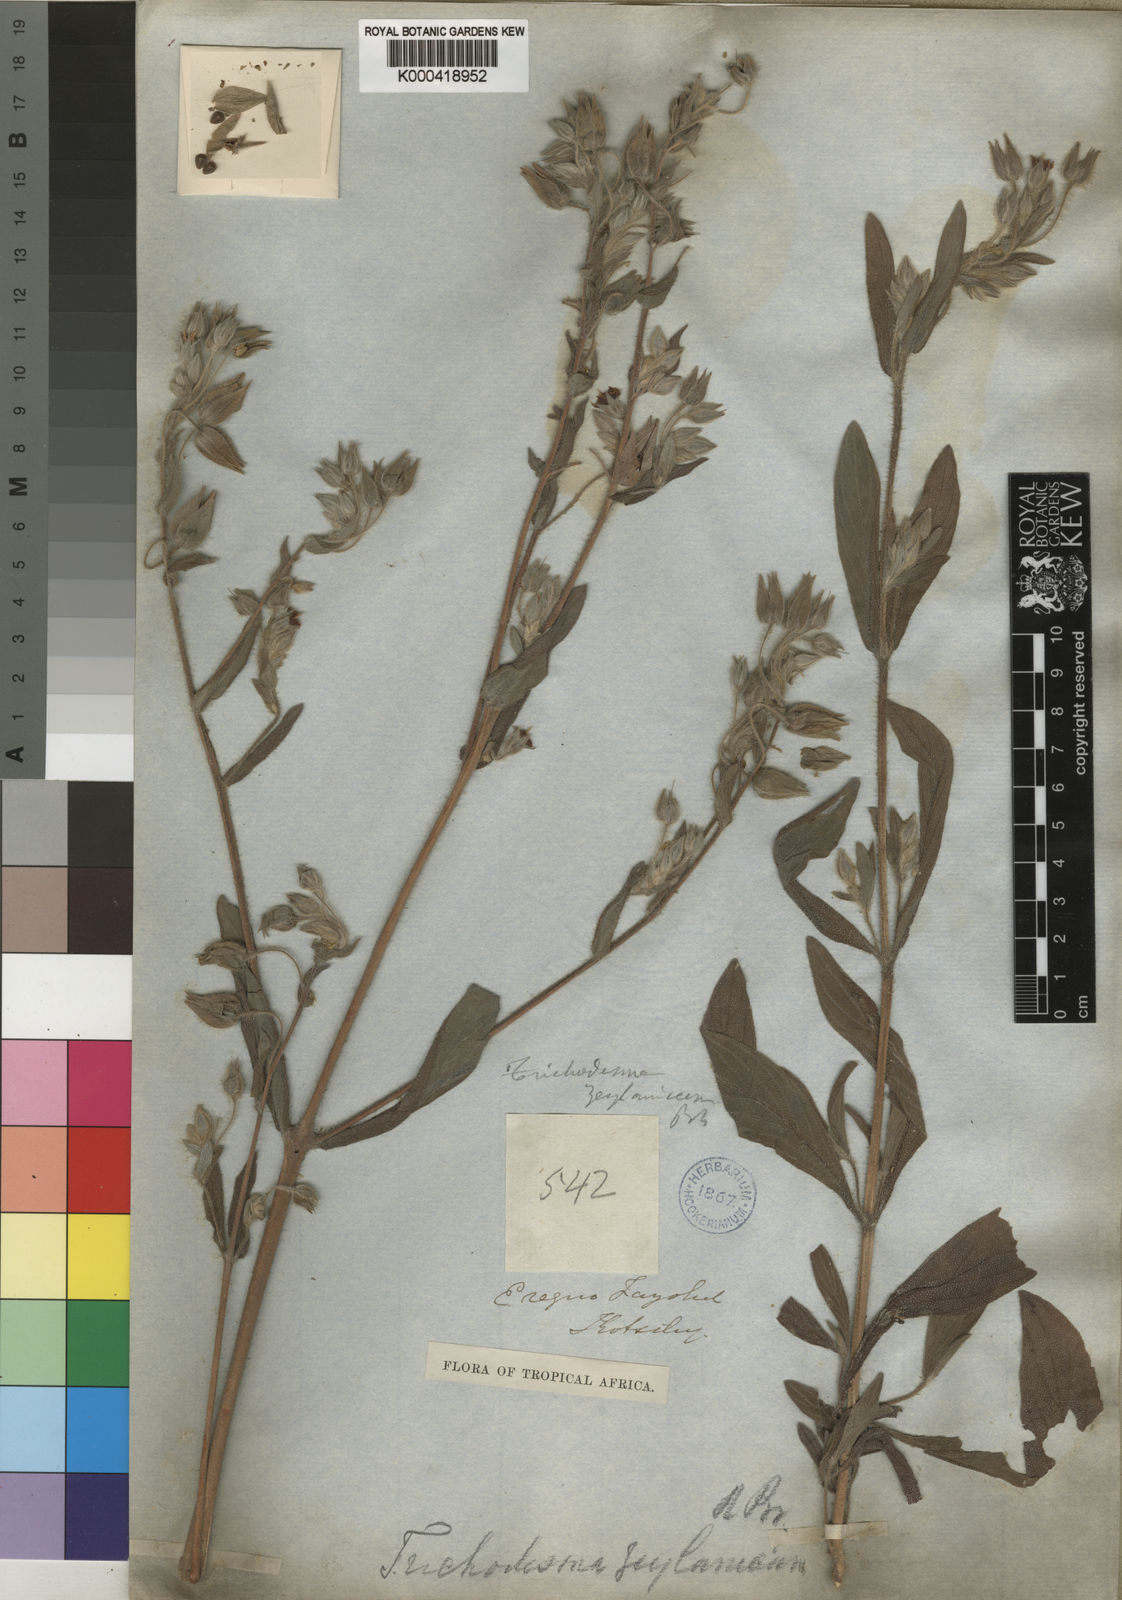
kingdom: Plantae
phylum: Tracheophyta
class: Magnoliopsida
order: Boraginales
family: Boraginaceae
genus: Trichodesma
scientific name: Trichodesma zeylanicum
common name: Camelbush
